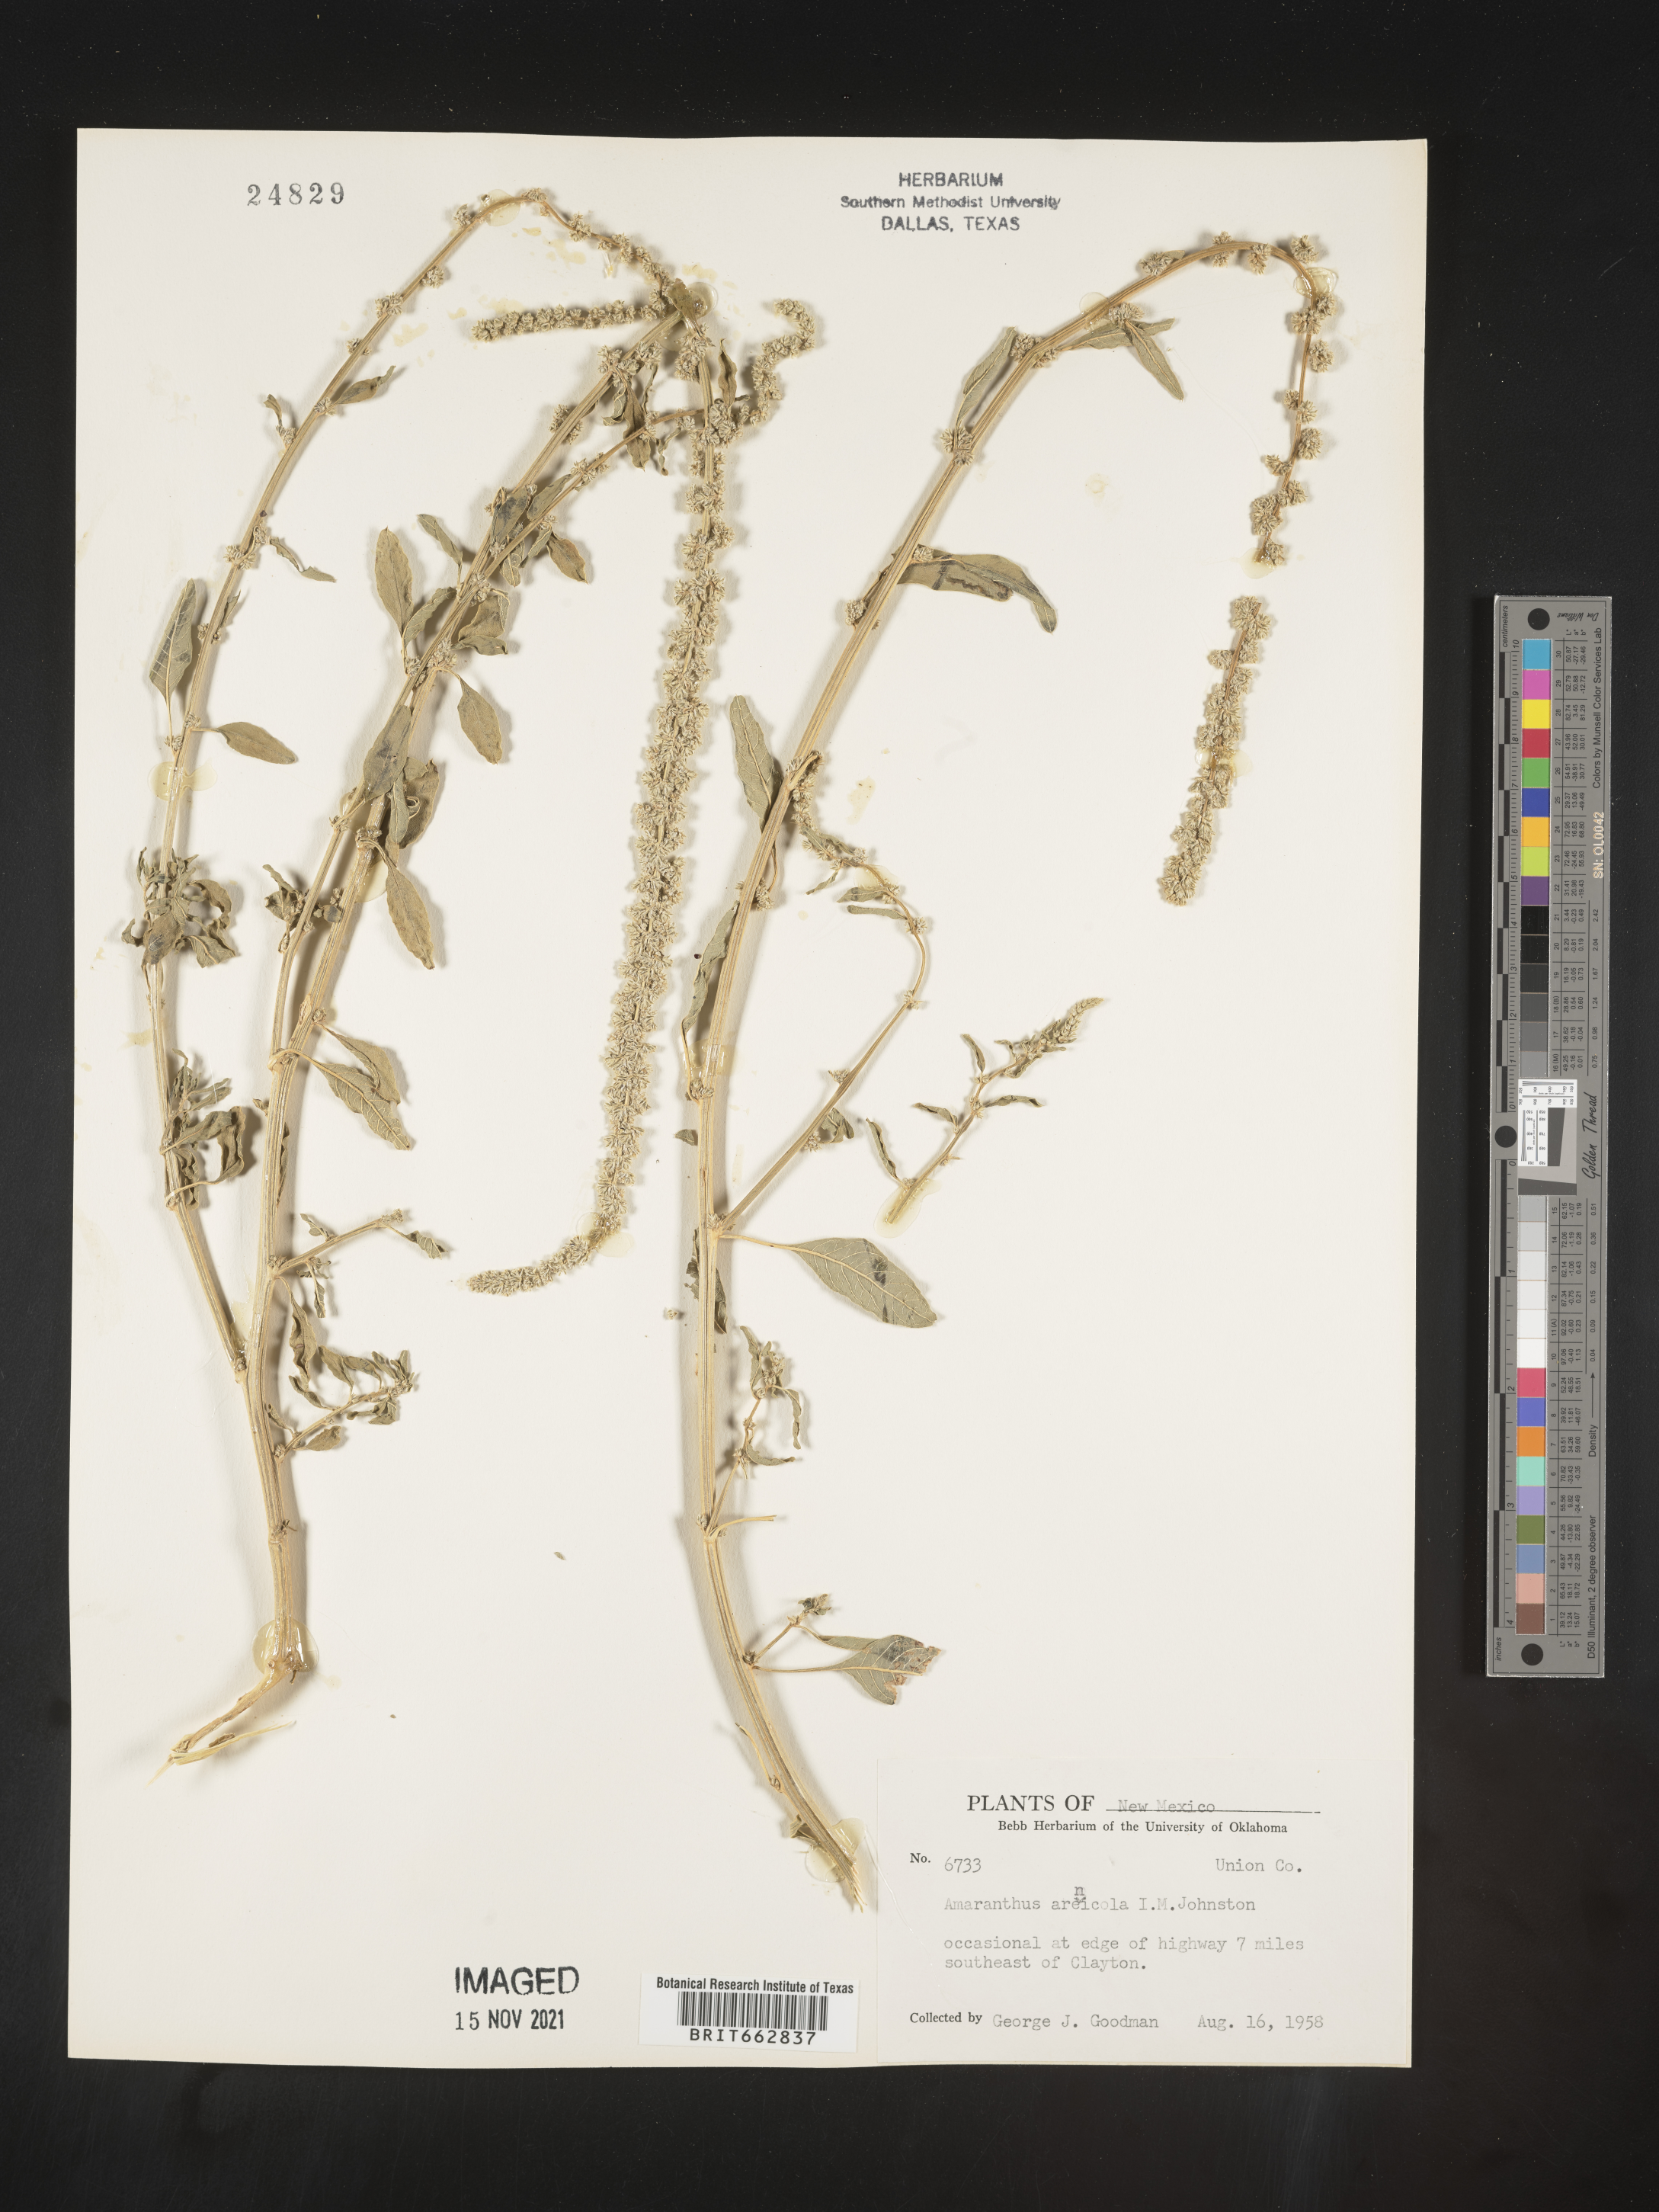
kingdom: Plantae
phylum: Tracheophyta
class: Magnoliopsida
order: Caryophyllales
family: Amaranthaceae
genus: Amaranthus
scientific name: Amaranthus arenicola
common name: Sandhills amaranth
